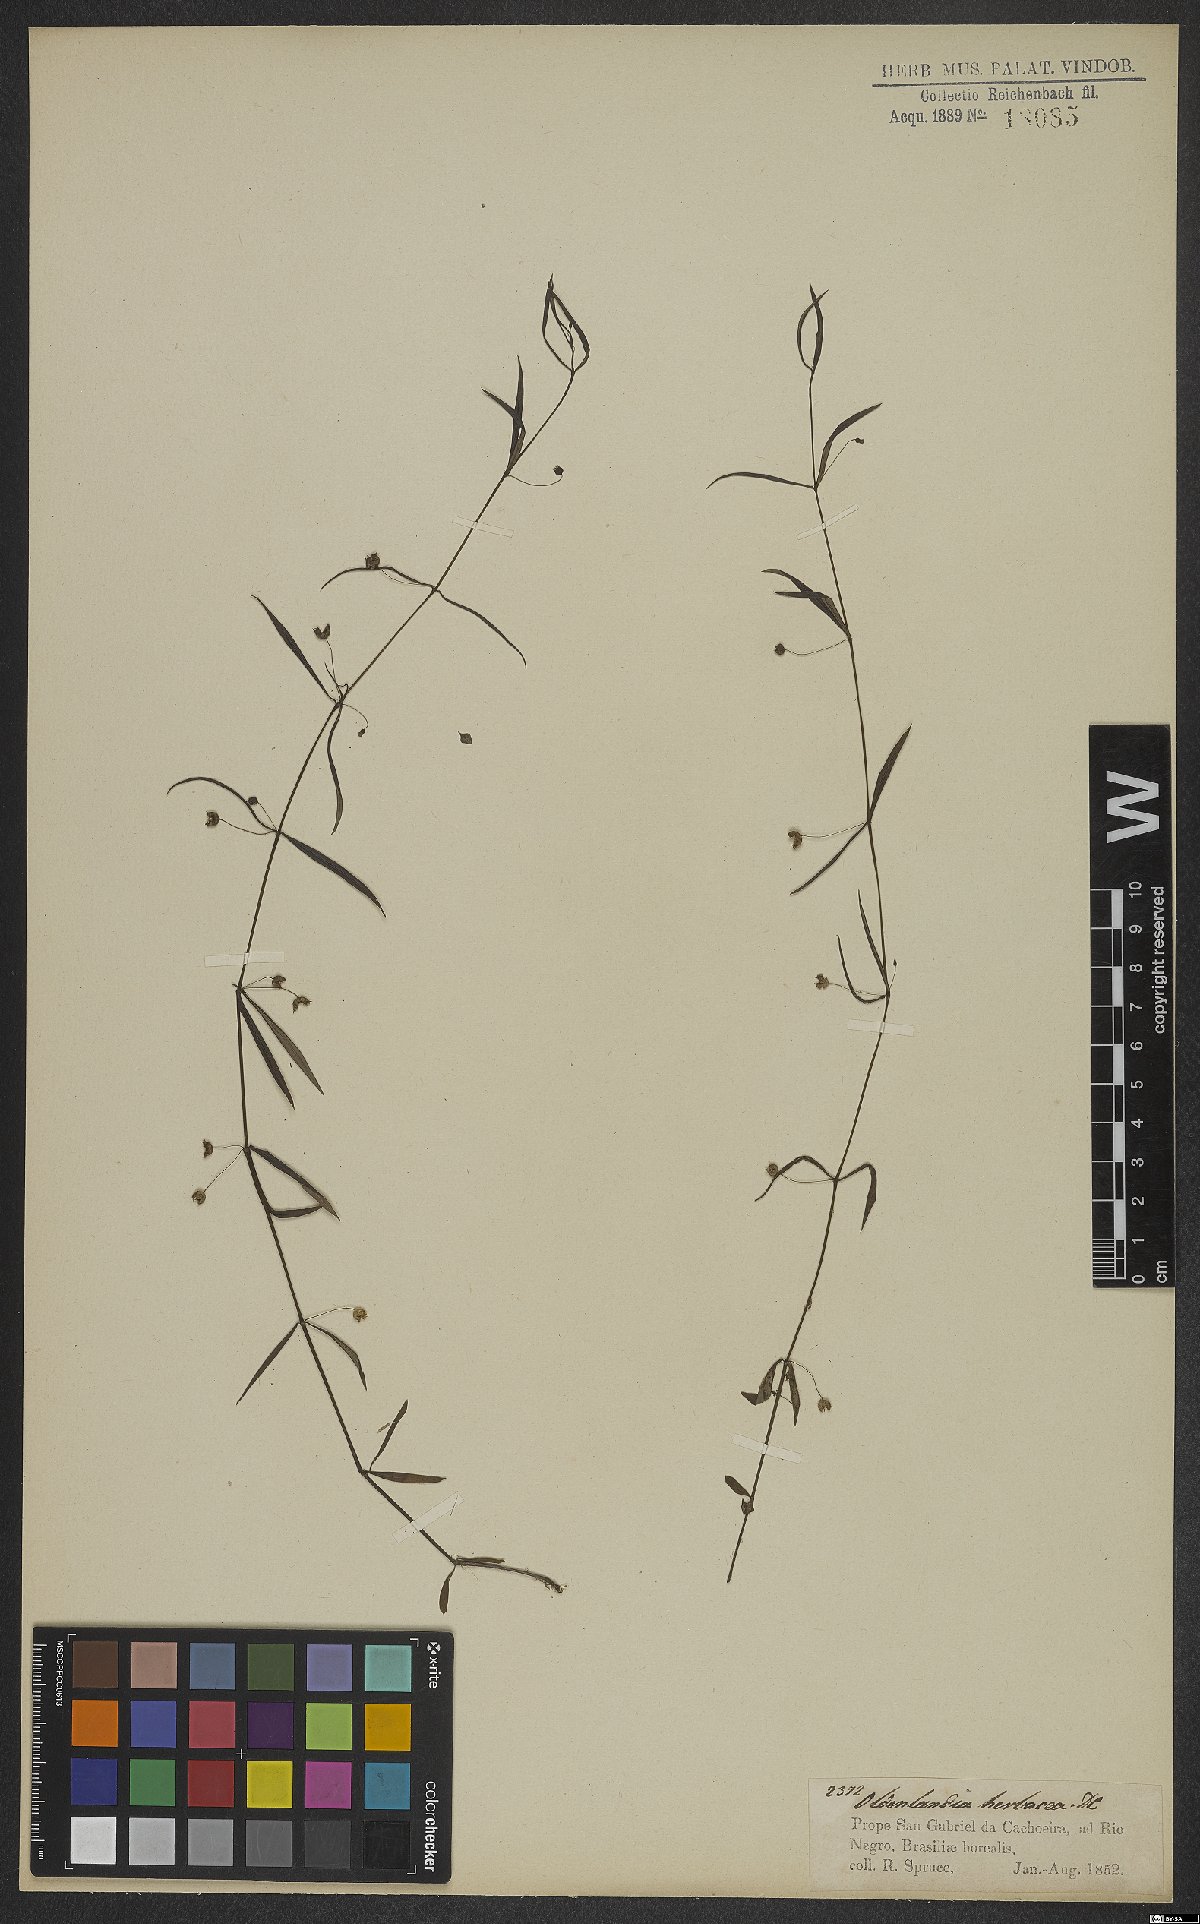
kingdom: Plantae
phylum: Tracheophyta
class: Magnoliopsida
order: Gentianales
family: Rubiaceae
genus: Oldenlandia
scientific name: Oldenlandia herbacea
